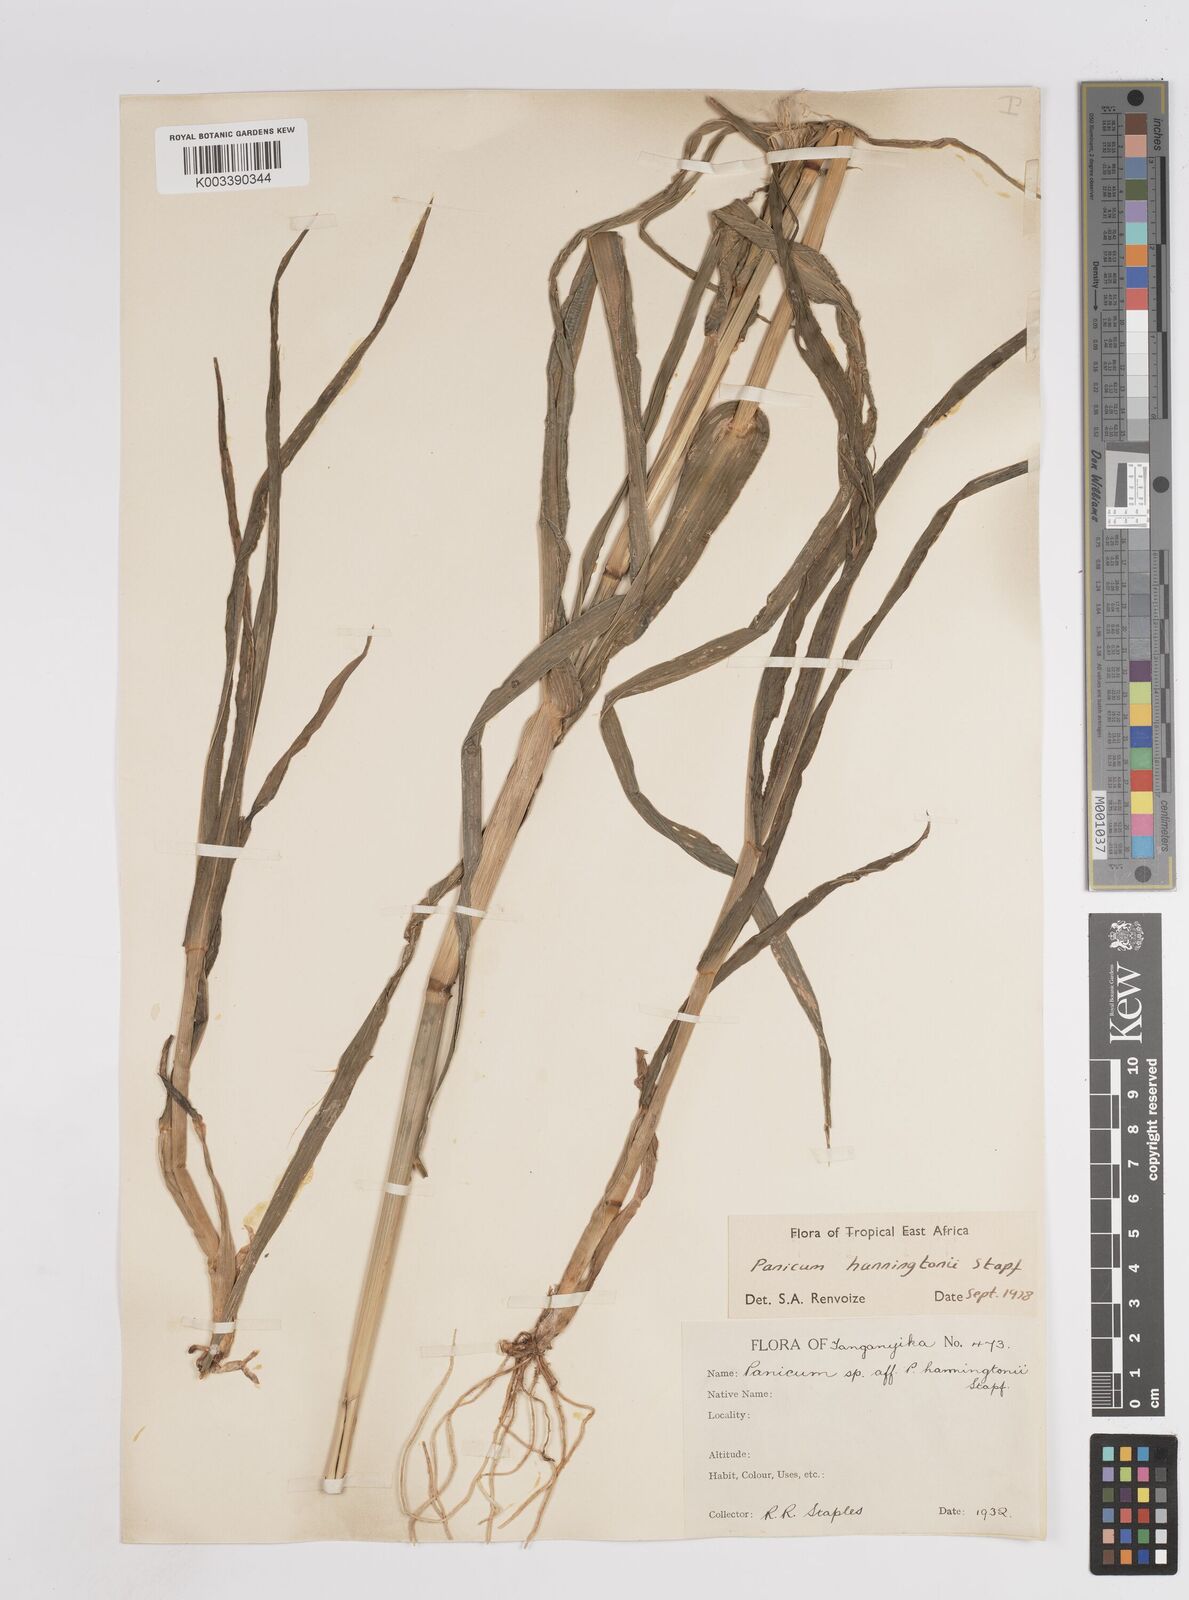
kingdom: Plantae
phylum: Tracheophyta
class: Liliopsida
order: Poales
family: Poaceae
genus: Panicum
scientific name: Panicum hanningtonii
